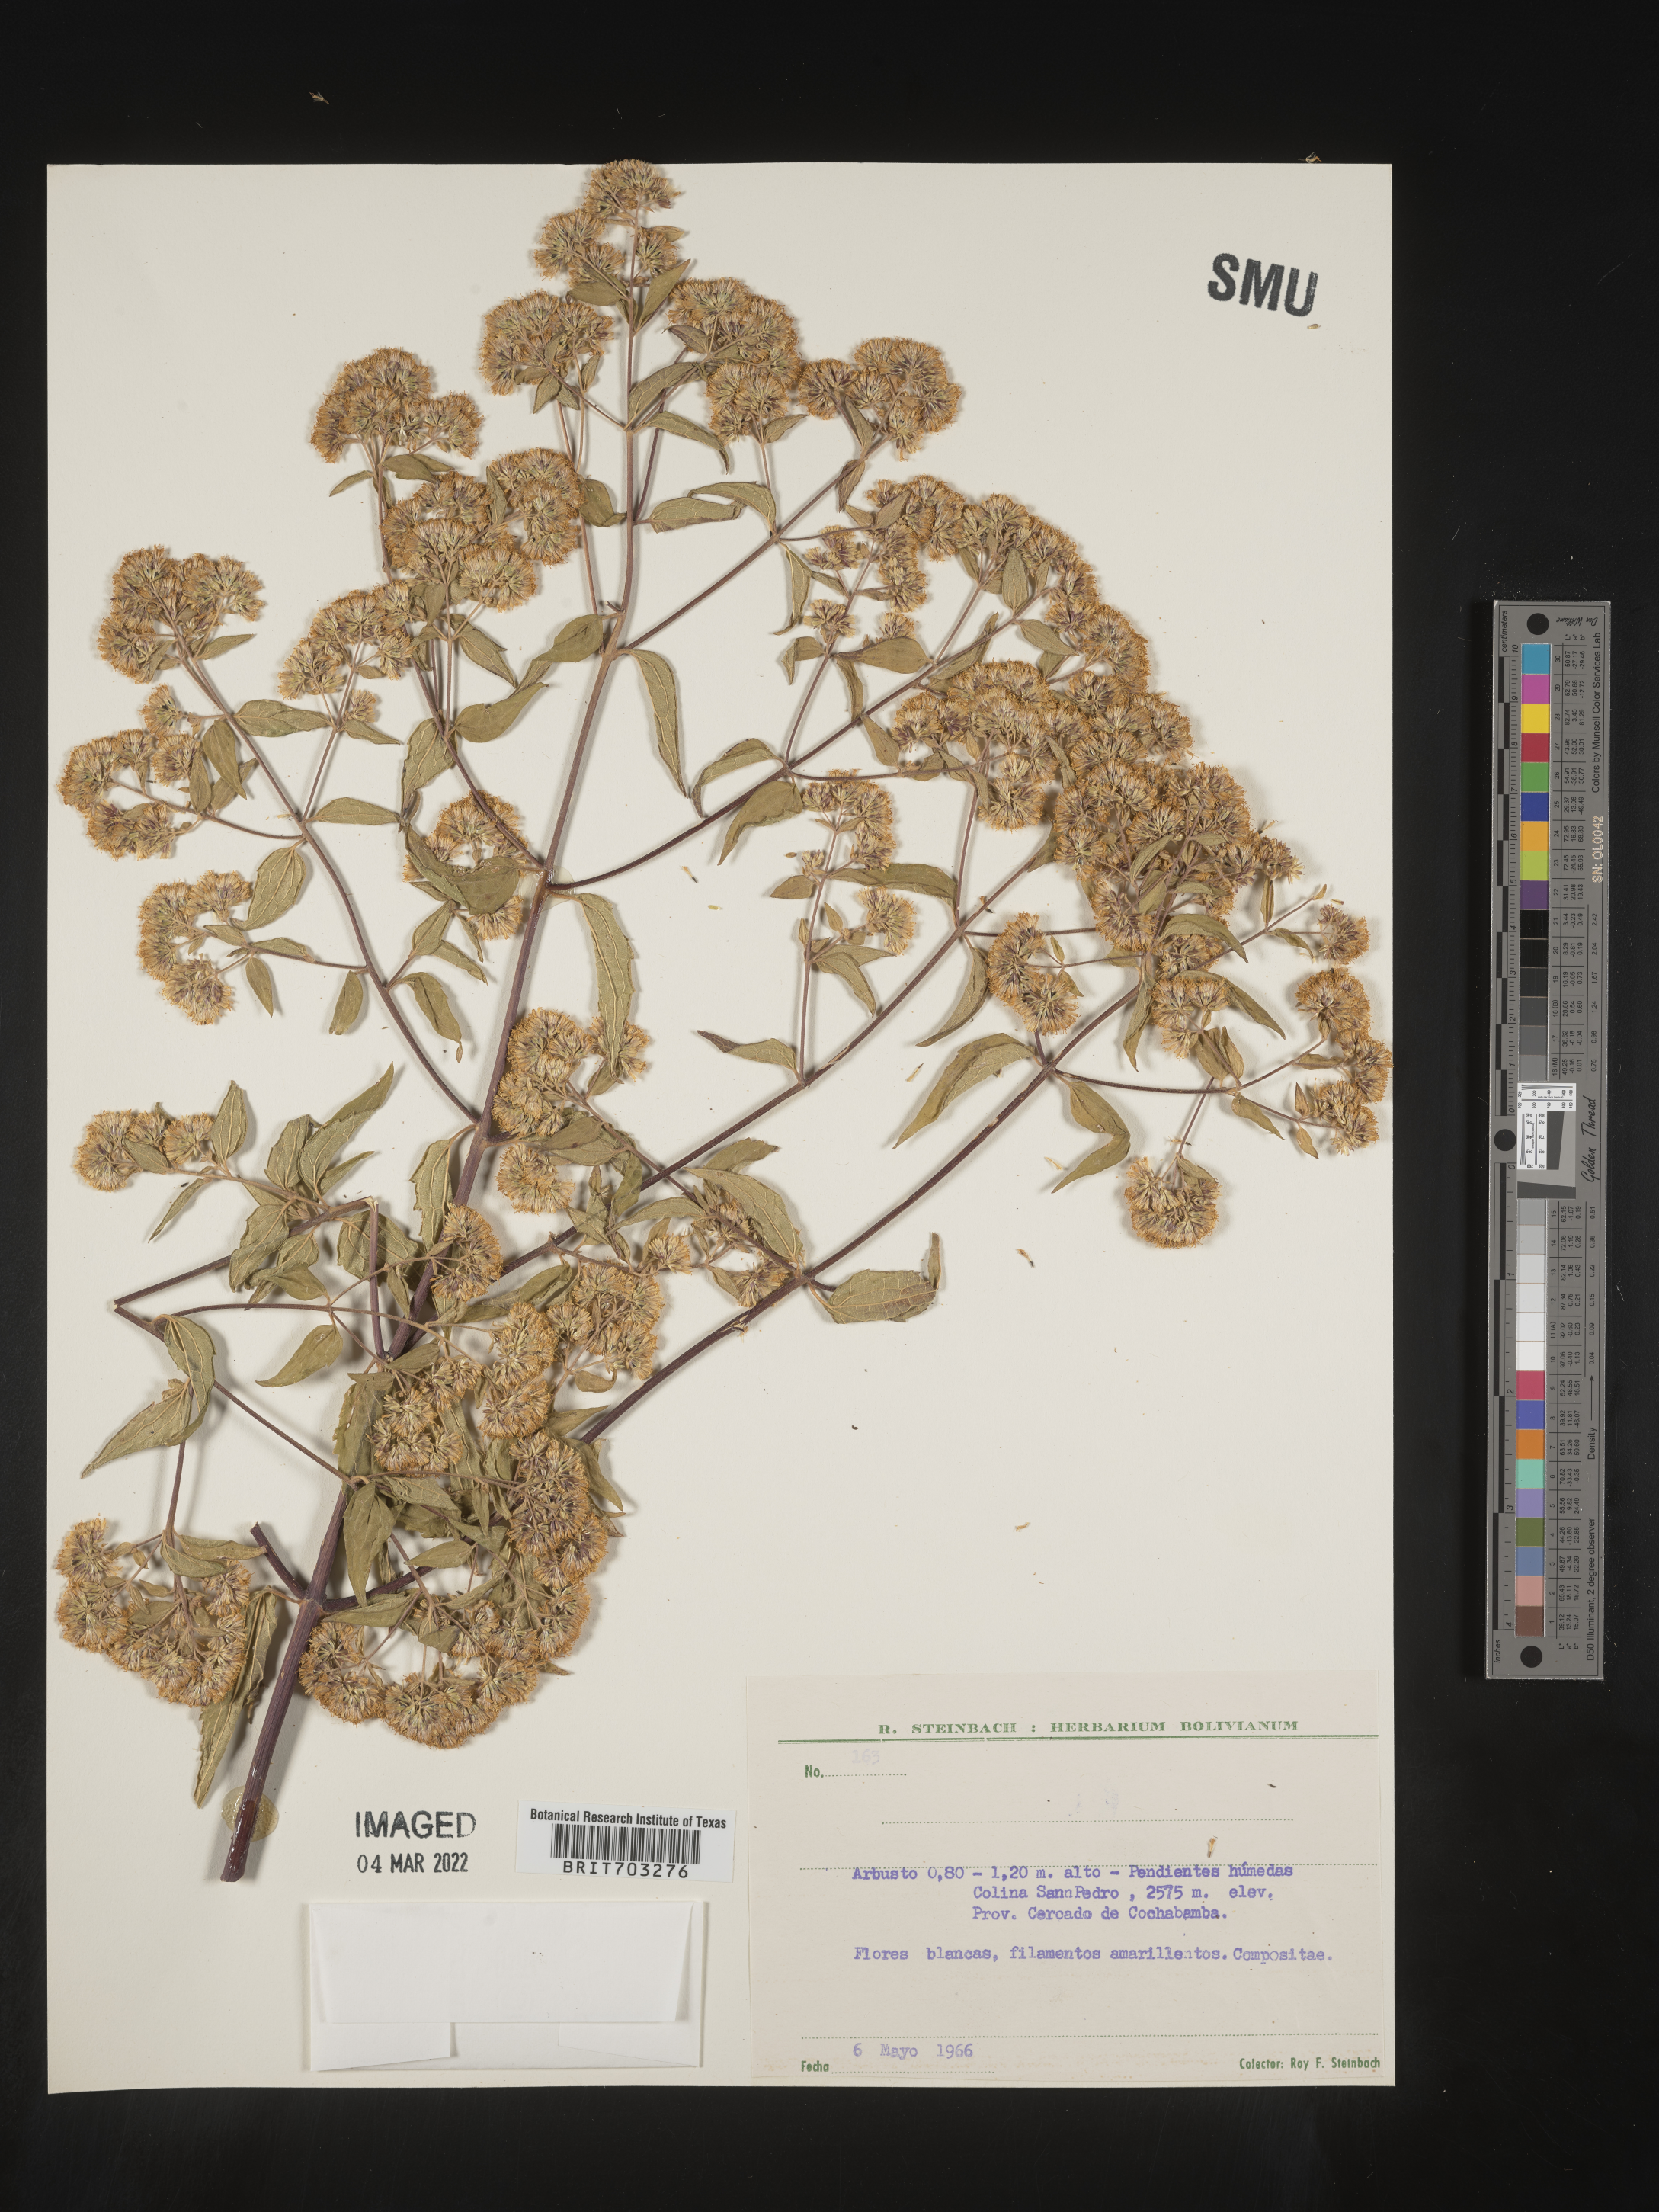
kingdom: Plantae
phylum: Tracheophyta
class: Magnoliopsida
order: Asterales
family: Asteraceae
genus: Eupatorium
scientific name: Eupatorium
